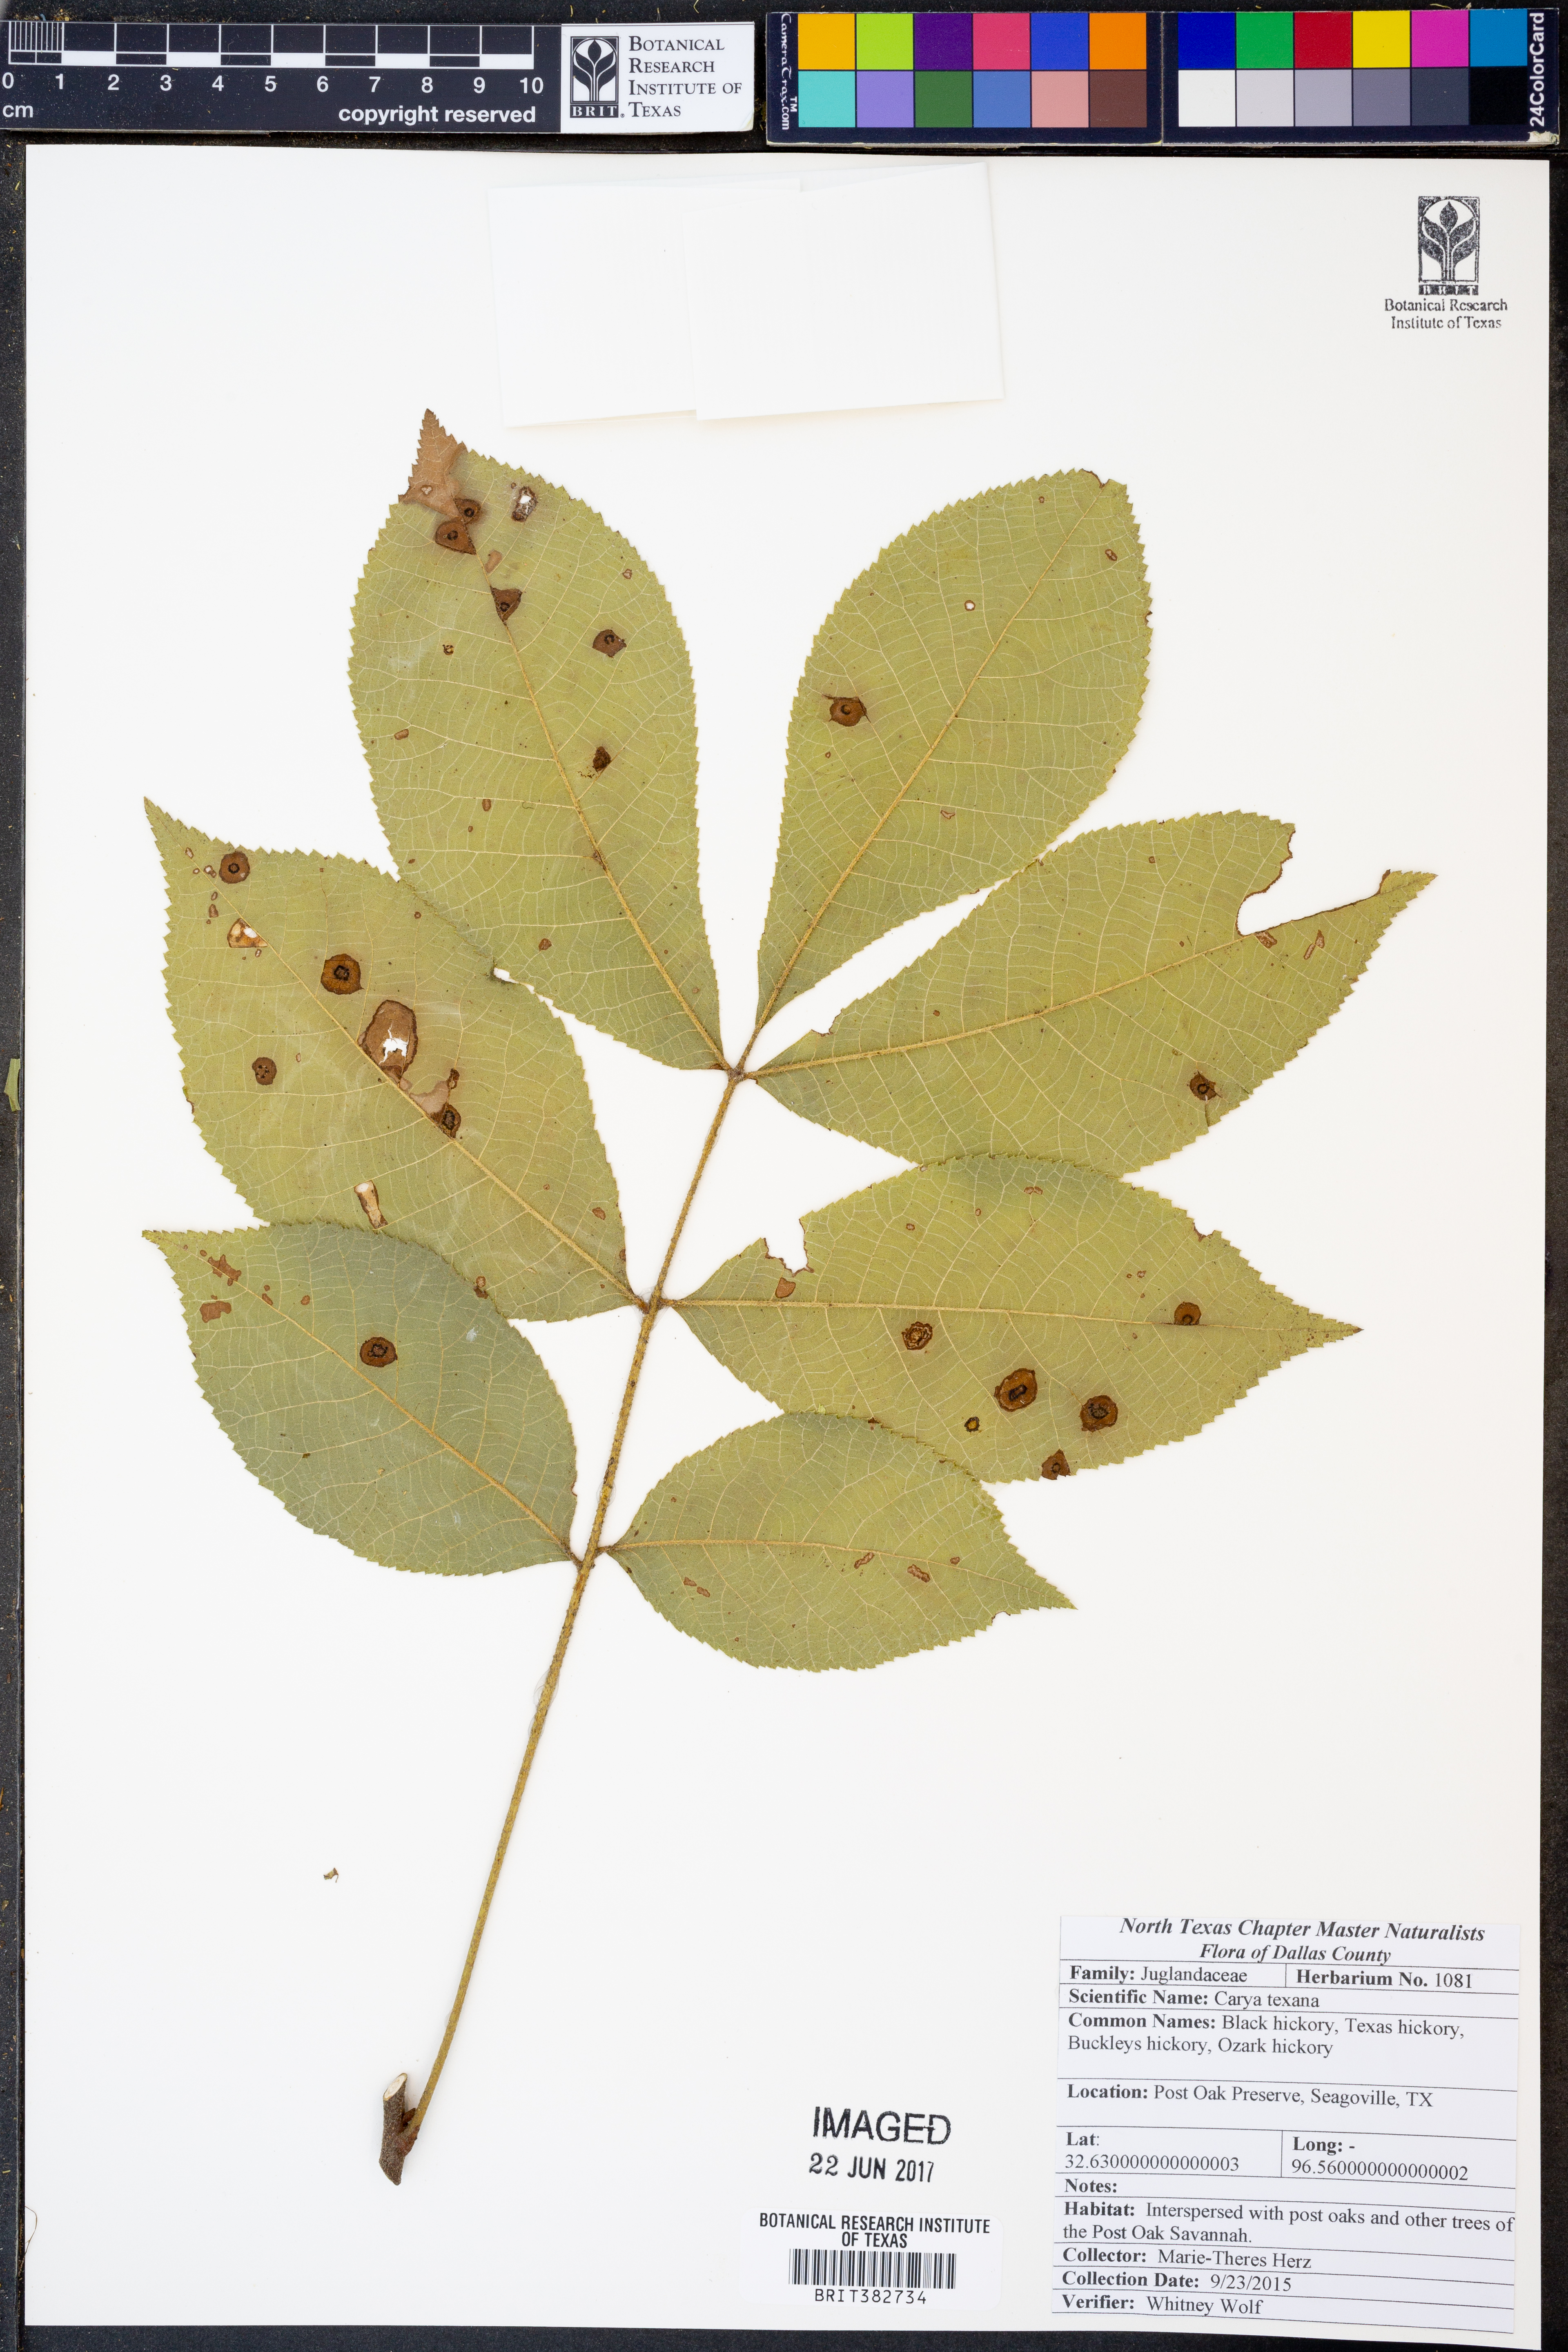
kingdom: Plantae
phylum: Tracheophyta
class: Magnoliopsida
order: Fagales
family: Juglandaceae
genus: Carya
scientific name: Carya texana
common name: Black hickory
